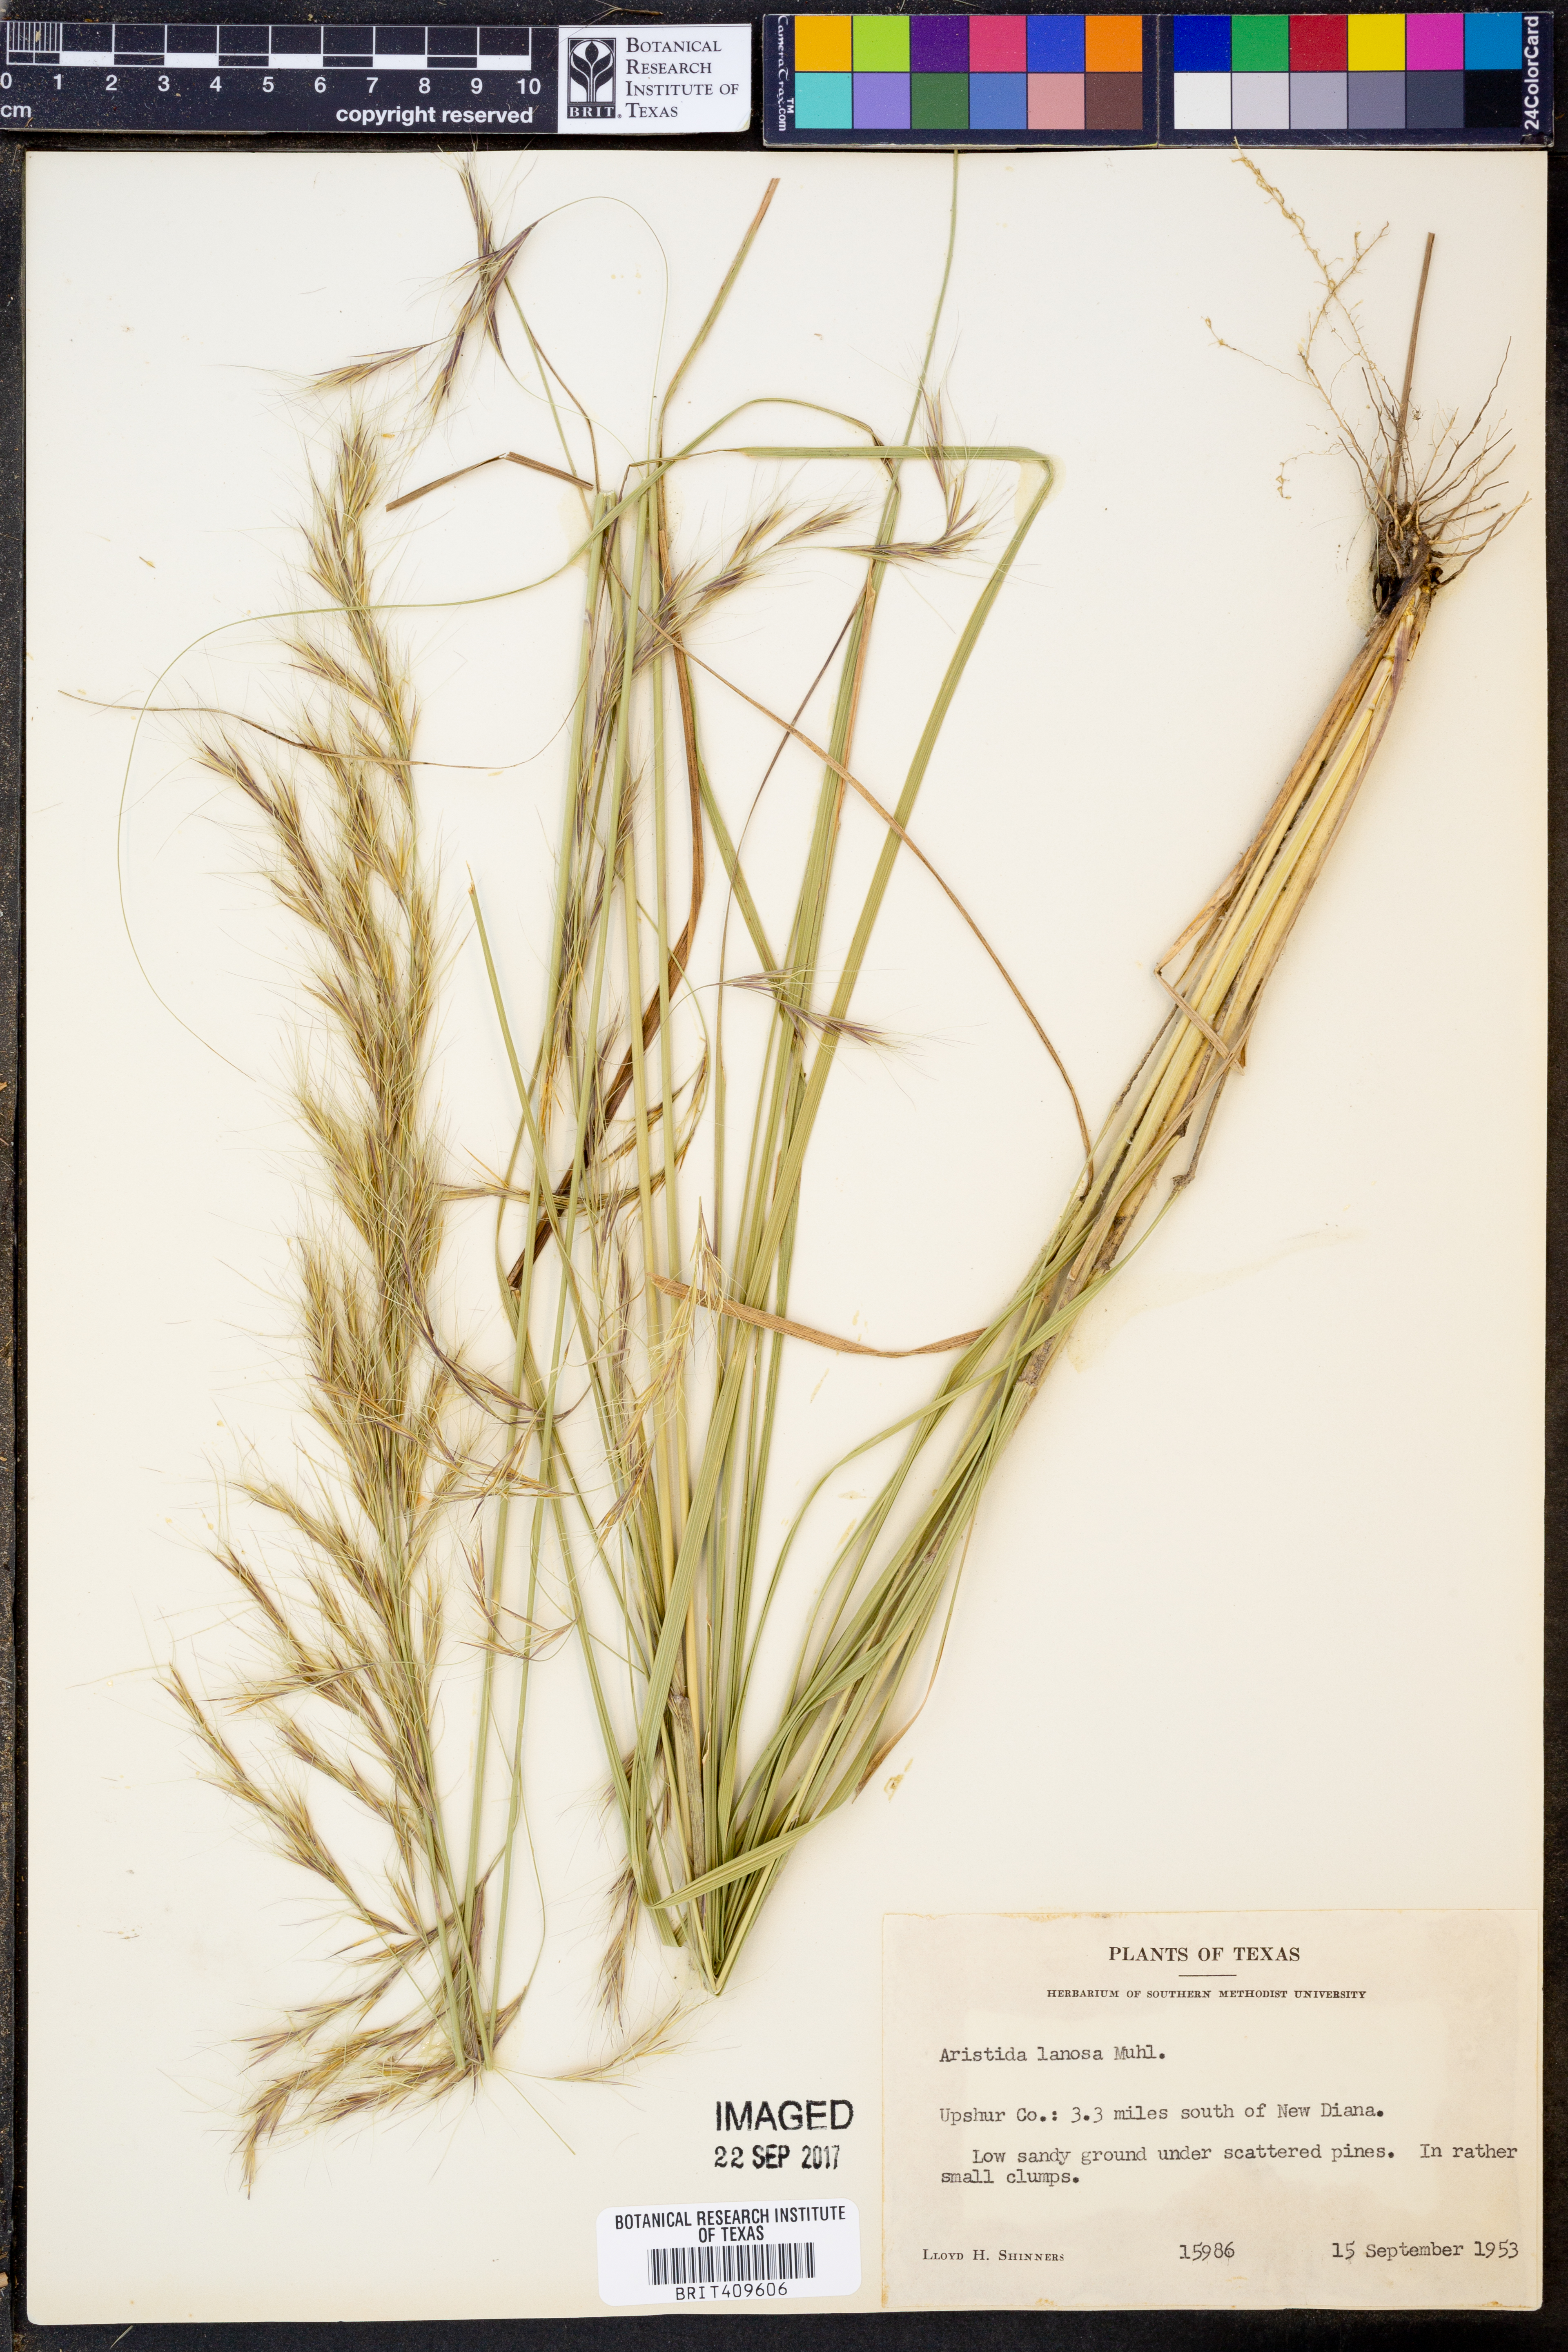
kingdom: Plantae
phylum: Tracheophyta
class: Liliopsida
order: Poales
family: Poaceae
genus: Aristida
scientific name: Aristida lanosa
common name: Woolly three-awn
